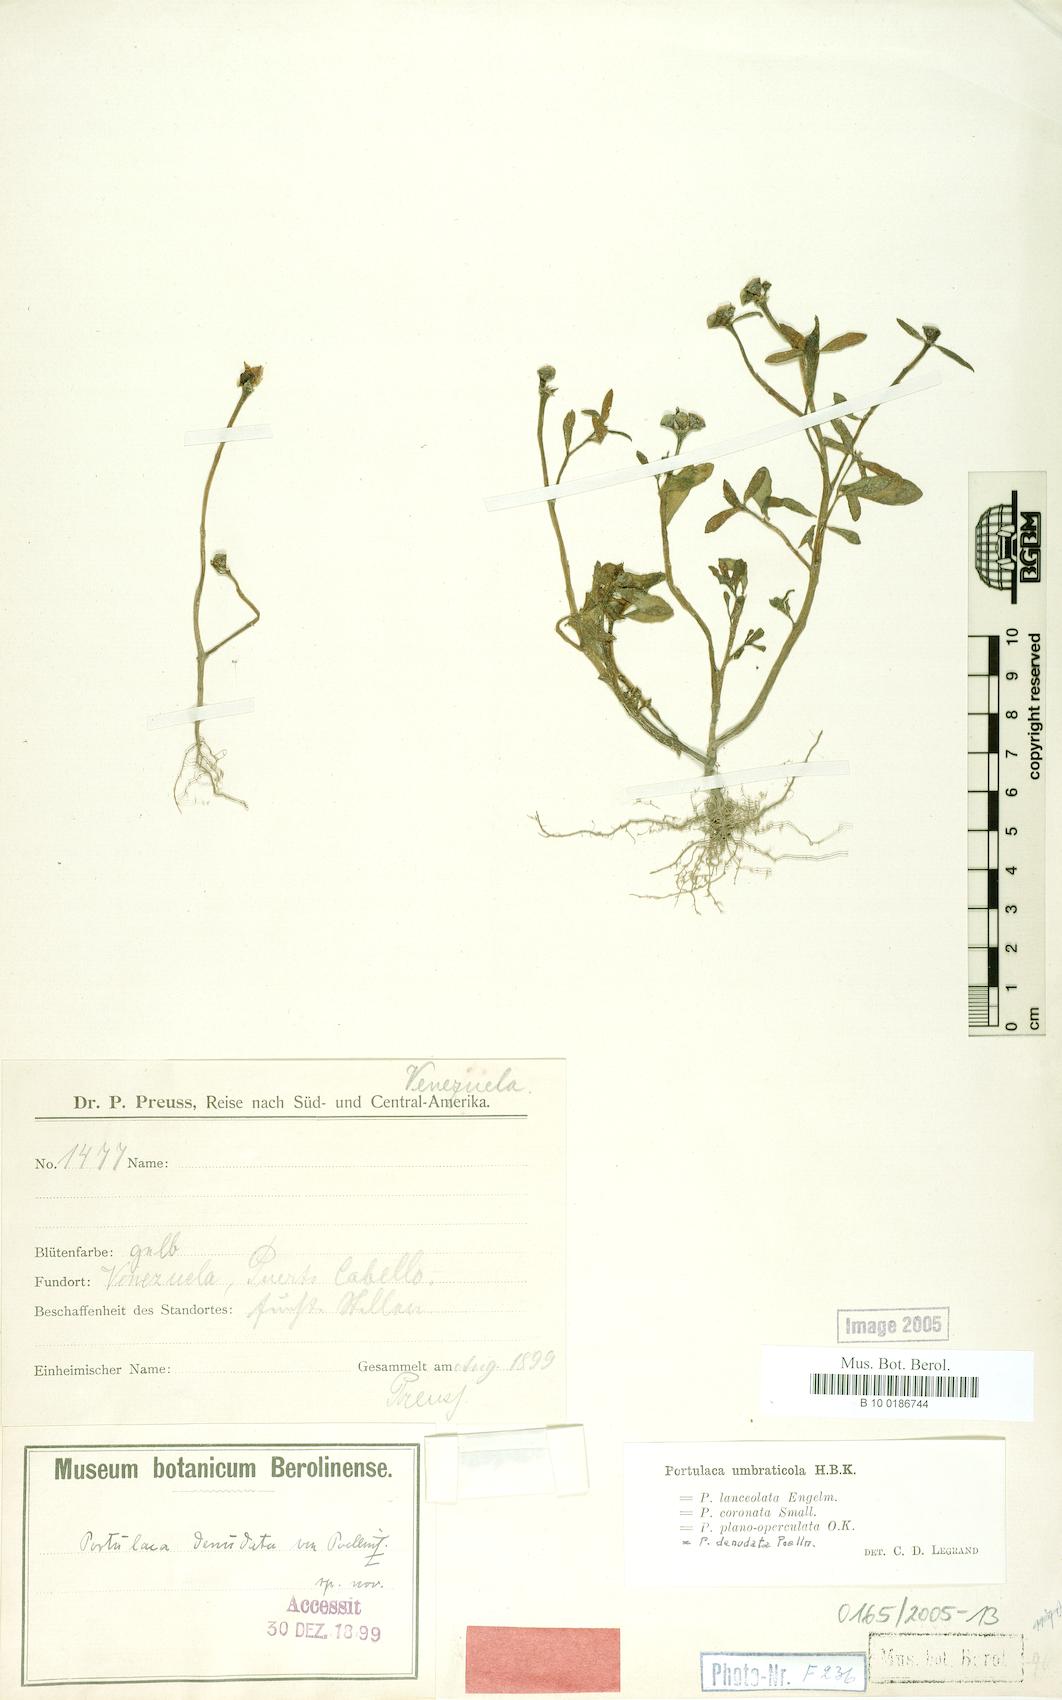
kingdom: Plantae
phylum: Tracheophyta
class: Magnoliopsida
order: Caryophyllales
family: Portulacaceae
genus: Portulaca
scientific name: Portulaca umbraticola
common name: Wingpod purslane
